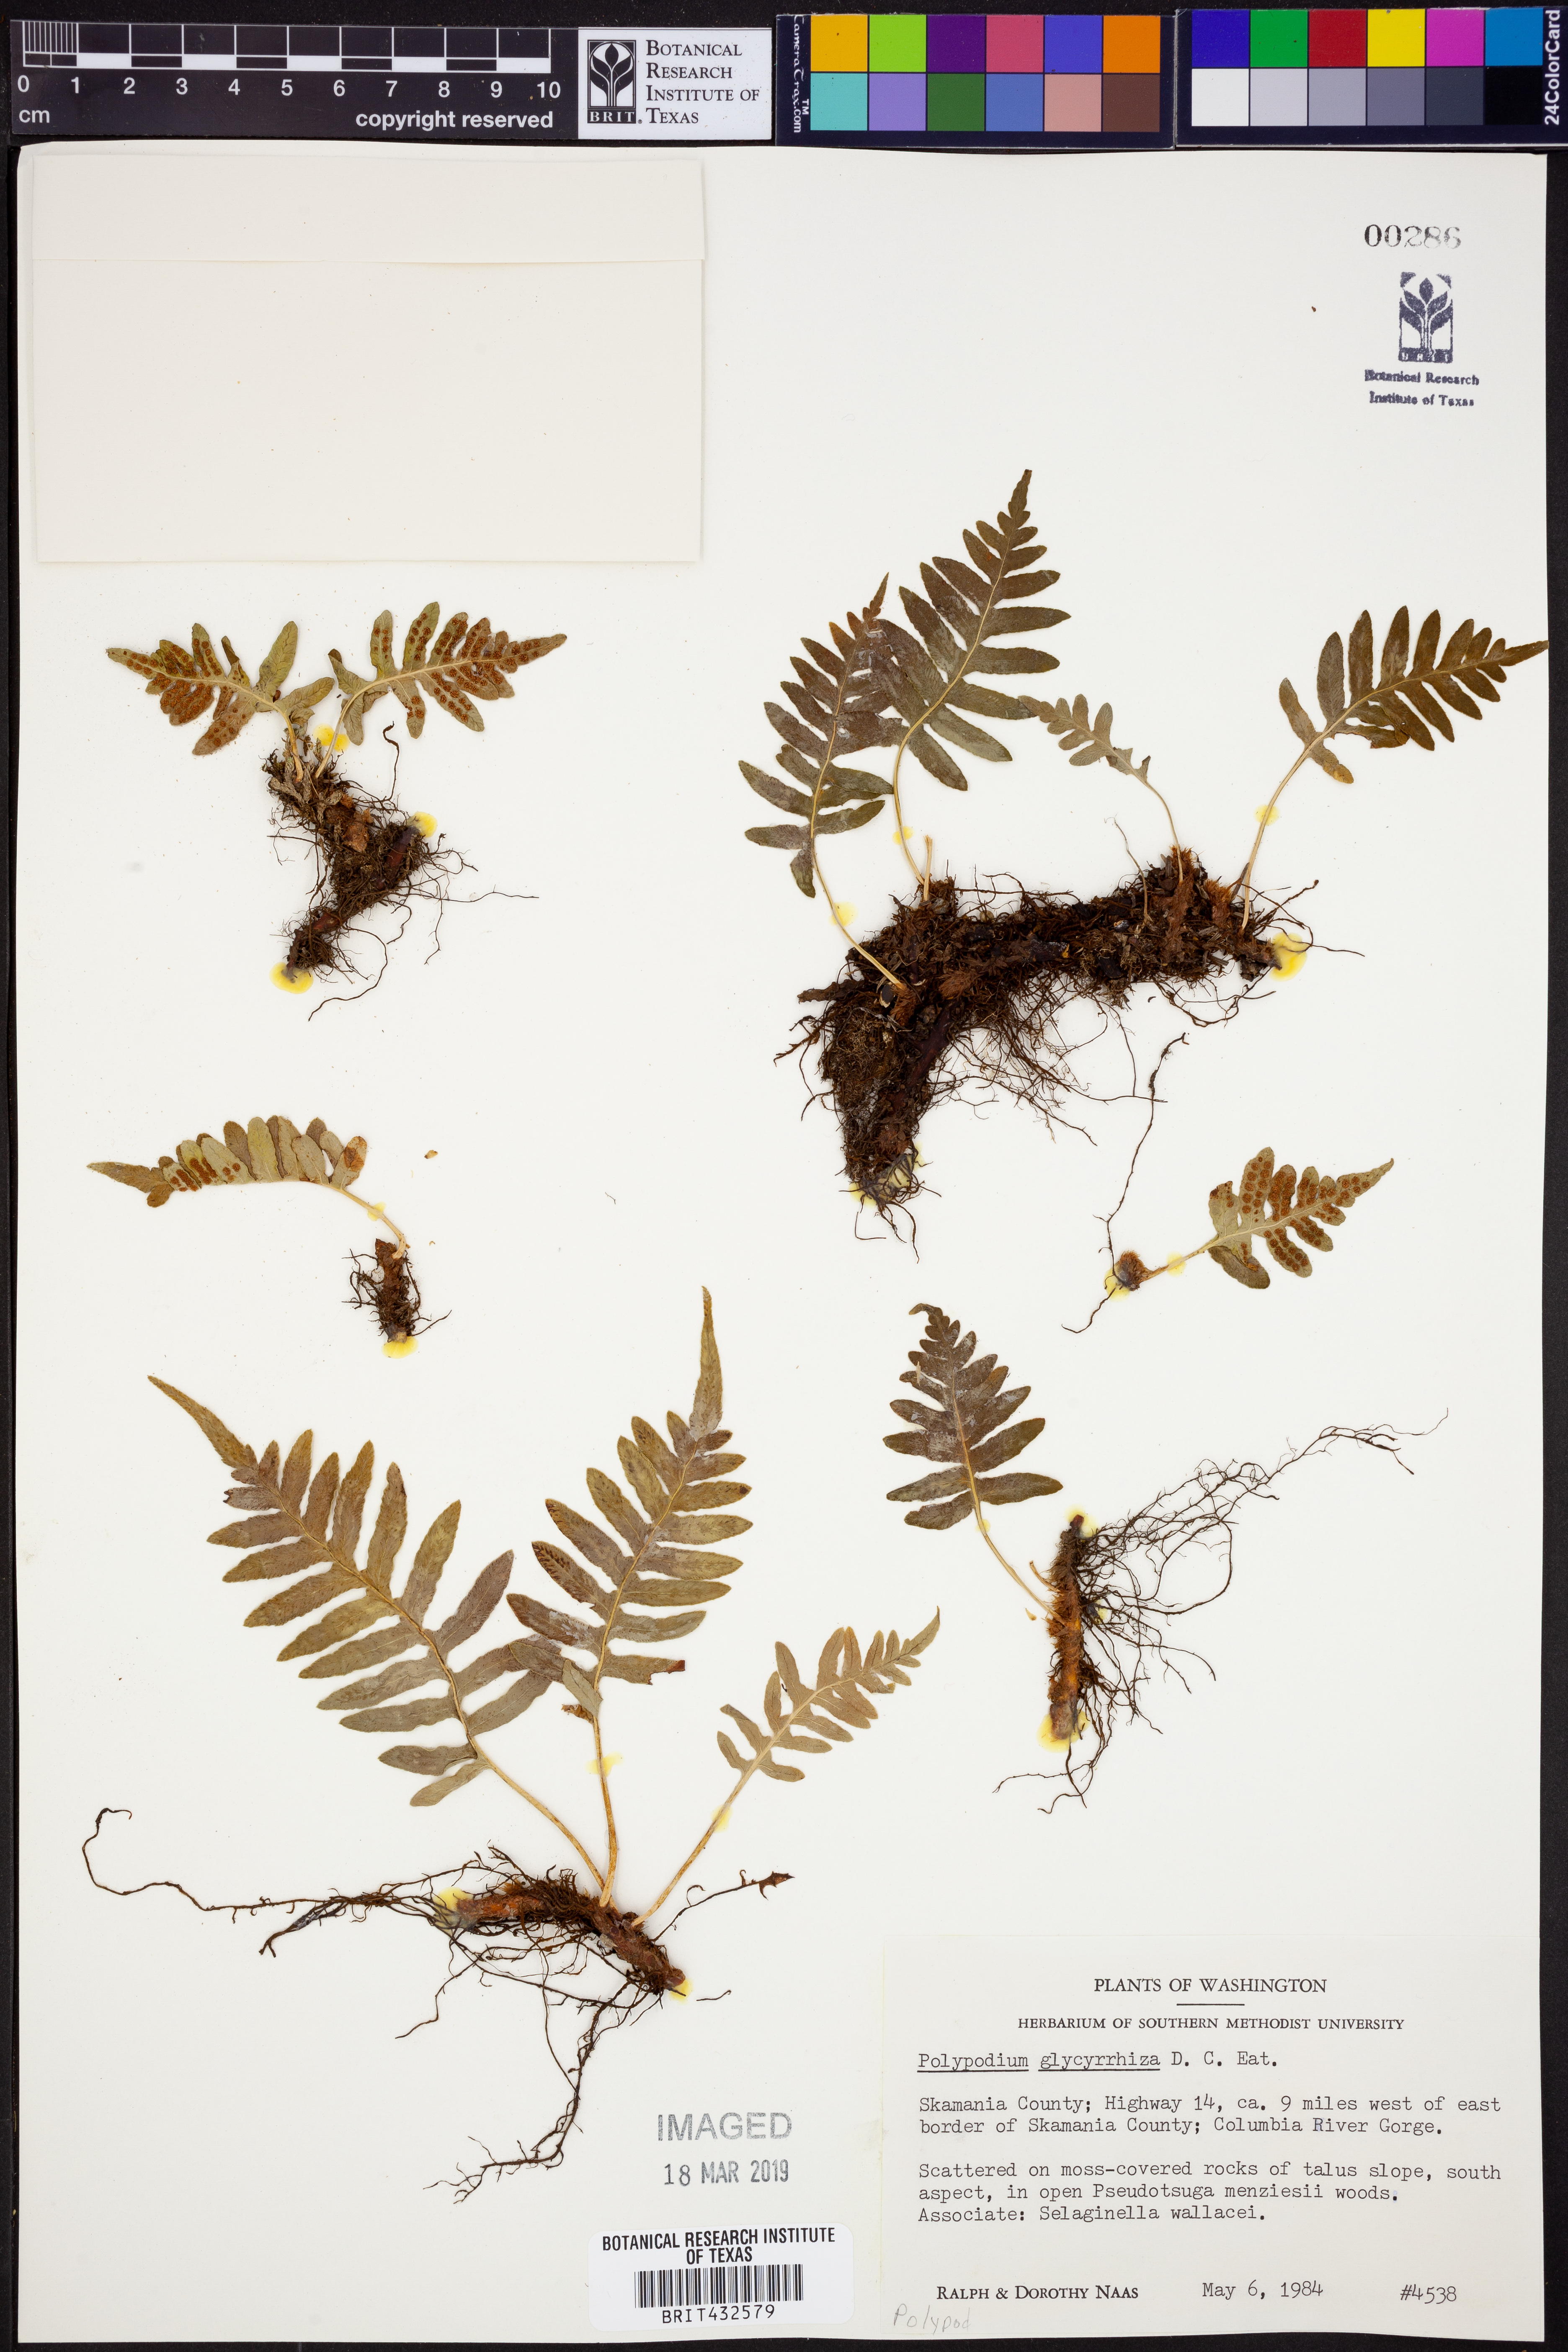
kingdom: Plantae
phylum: Tracheophyta
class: Polypodiopsida
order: Polypodiales
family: Polypodiaceae
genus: Polypodium
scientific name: Polypodium glycyrrhiza
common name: Licorice fern
